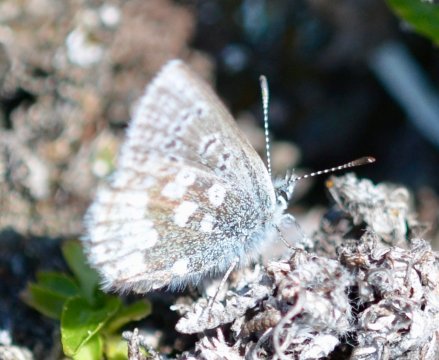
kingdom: Animalia
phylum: Arthropoda
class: Insecta
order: Lepidoptera
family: Lycaenidae
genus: Agriades
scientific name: Agriades glandon
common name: Arctic Blue
